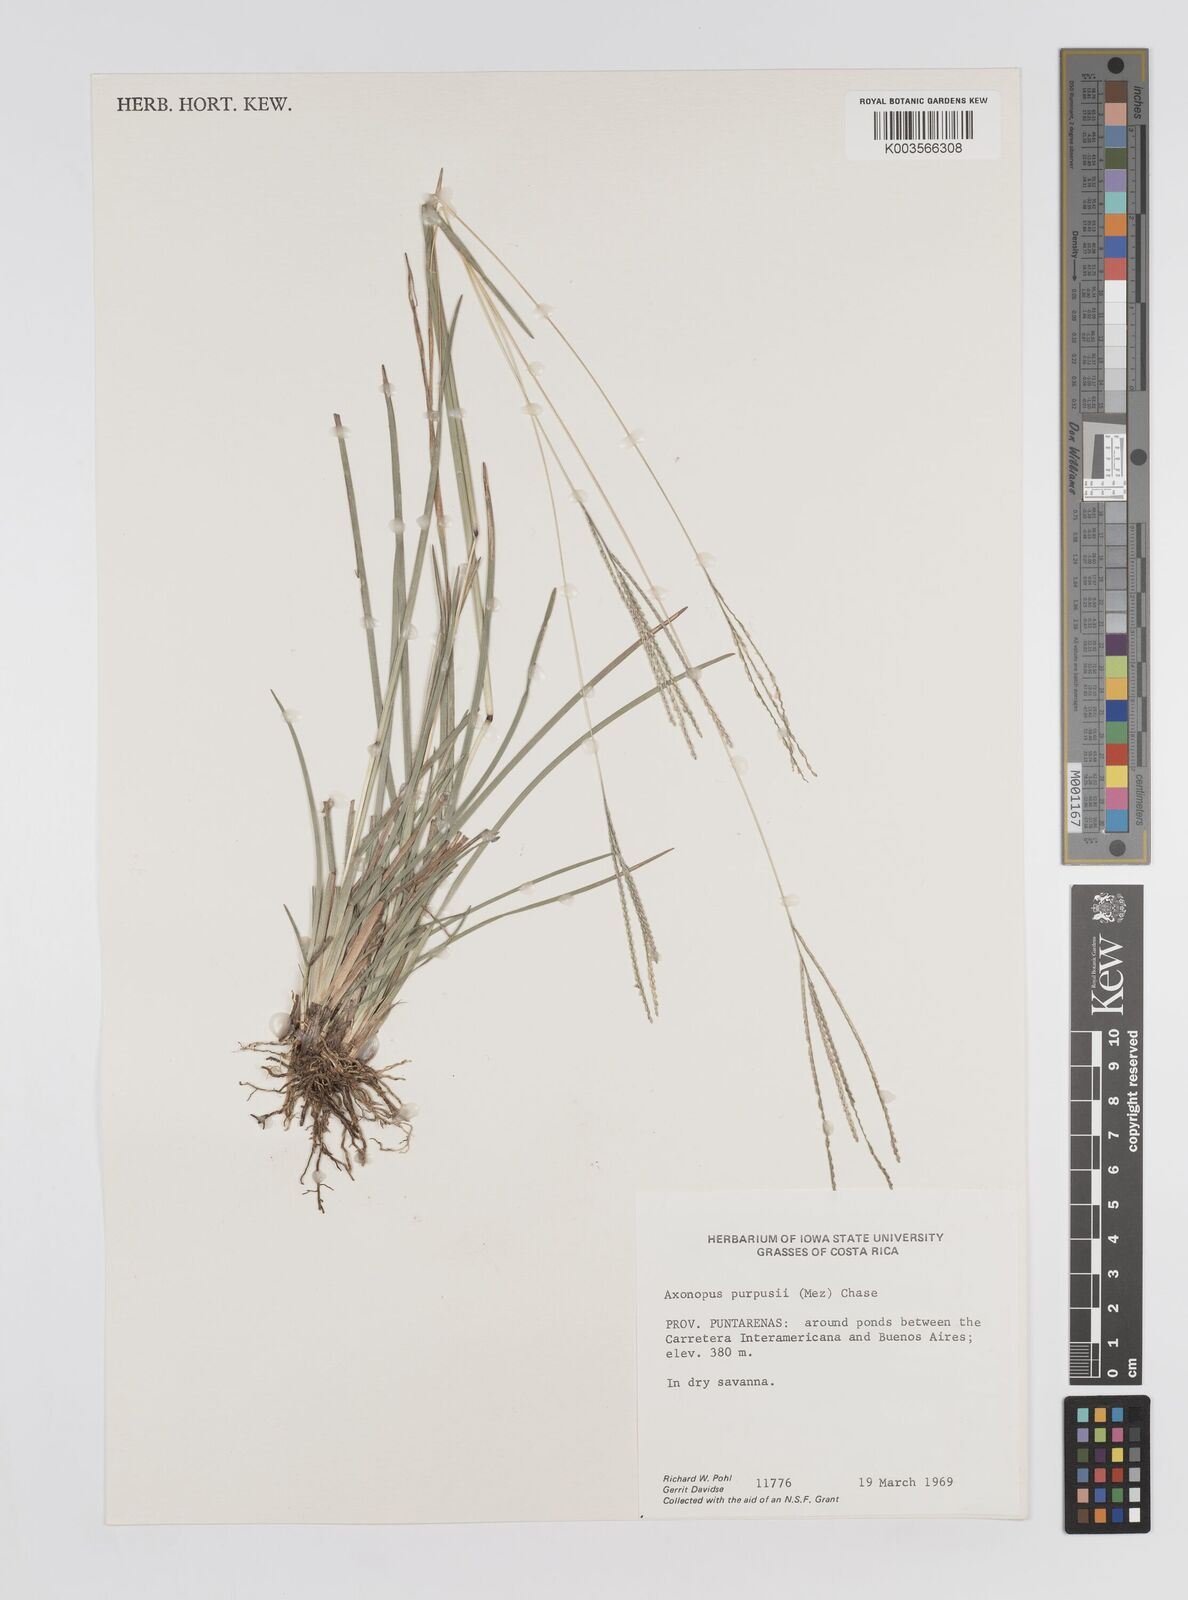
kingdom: Plantae
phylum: Tracheophyta
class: Liliopsida
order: Poales
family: Poaceae
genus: Axonopus
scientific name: Axonopus purpusii
